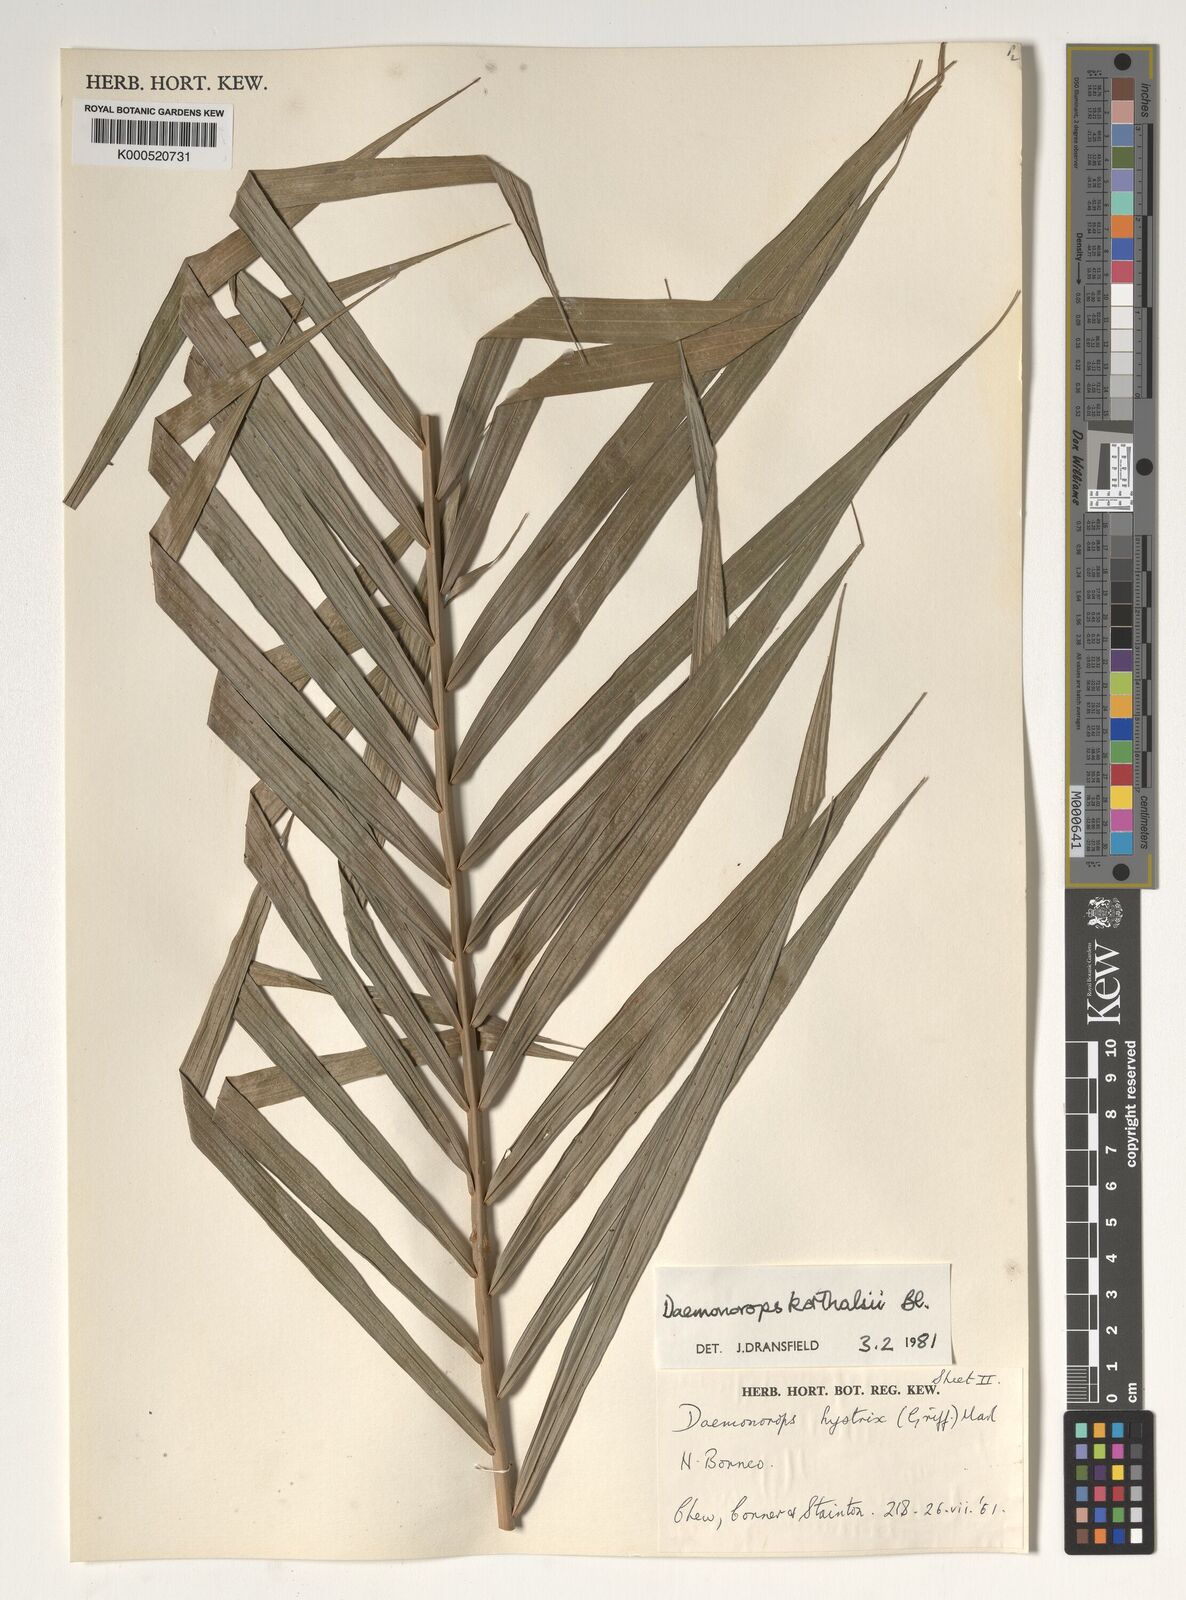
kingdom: Plantae
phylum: Tracheophyta
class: Liliopsida
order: Arecales
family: Arecaceae
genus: Calamus
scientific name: Calamus hirsutus
